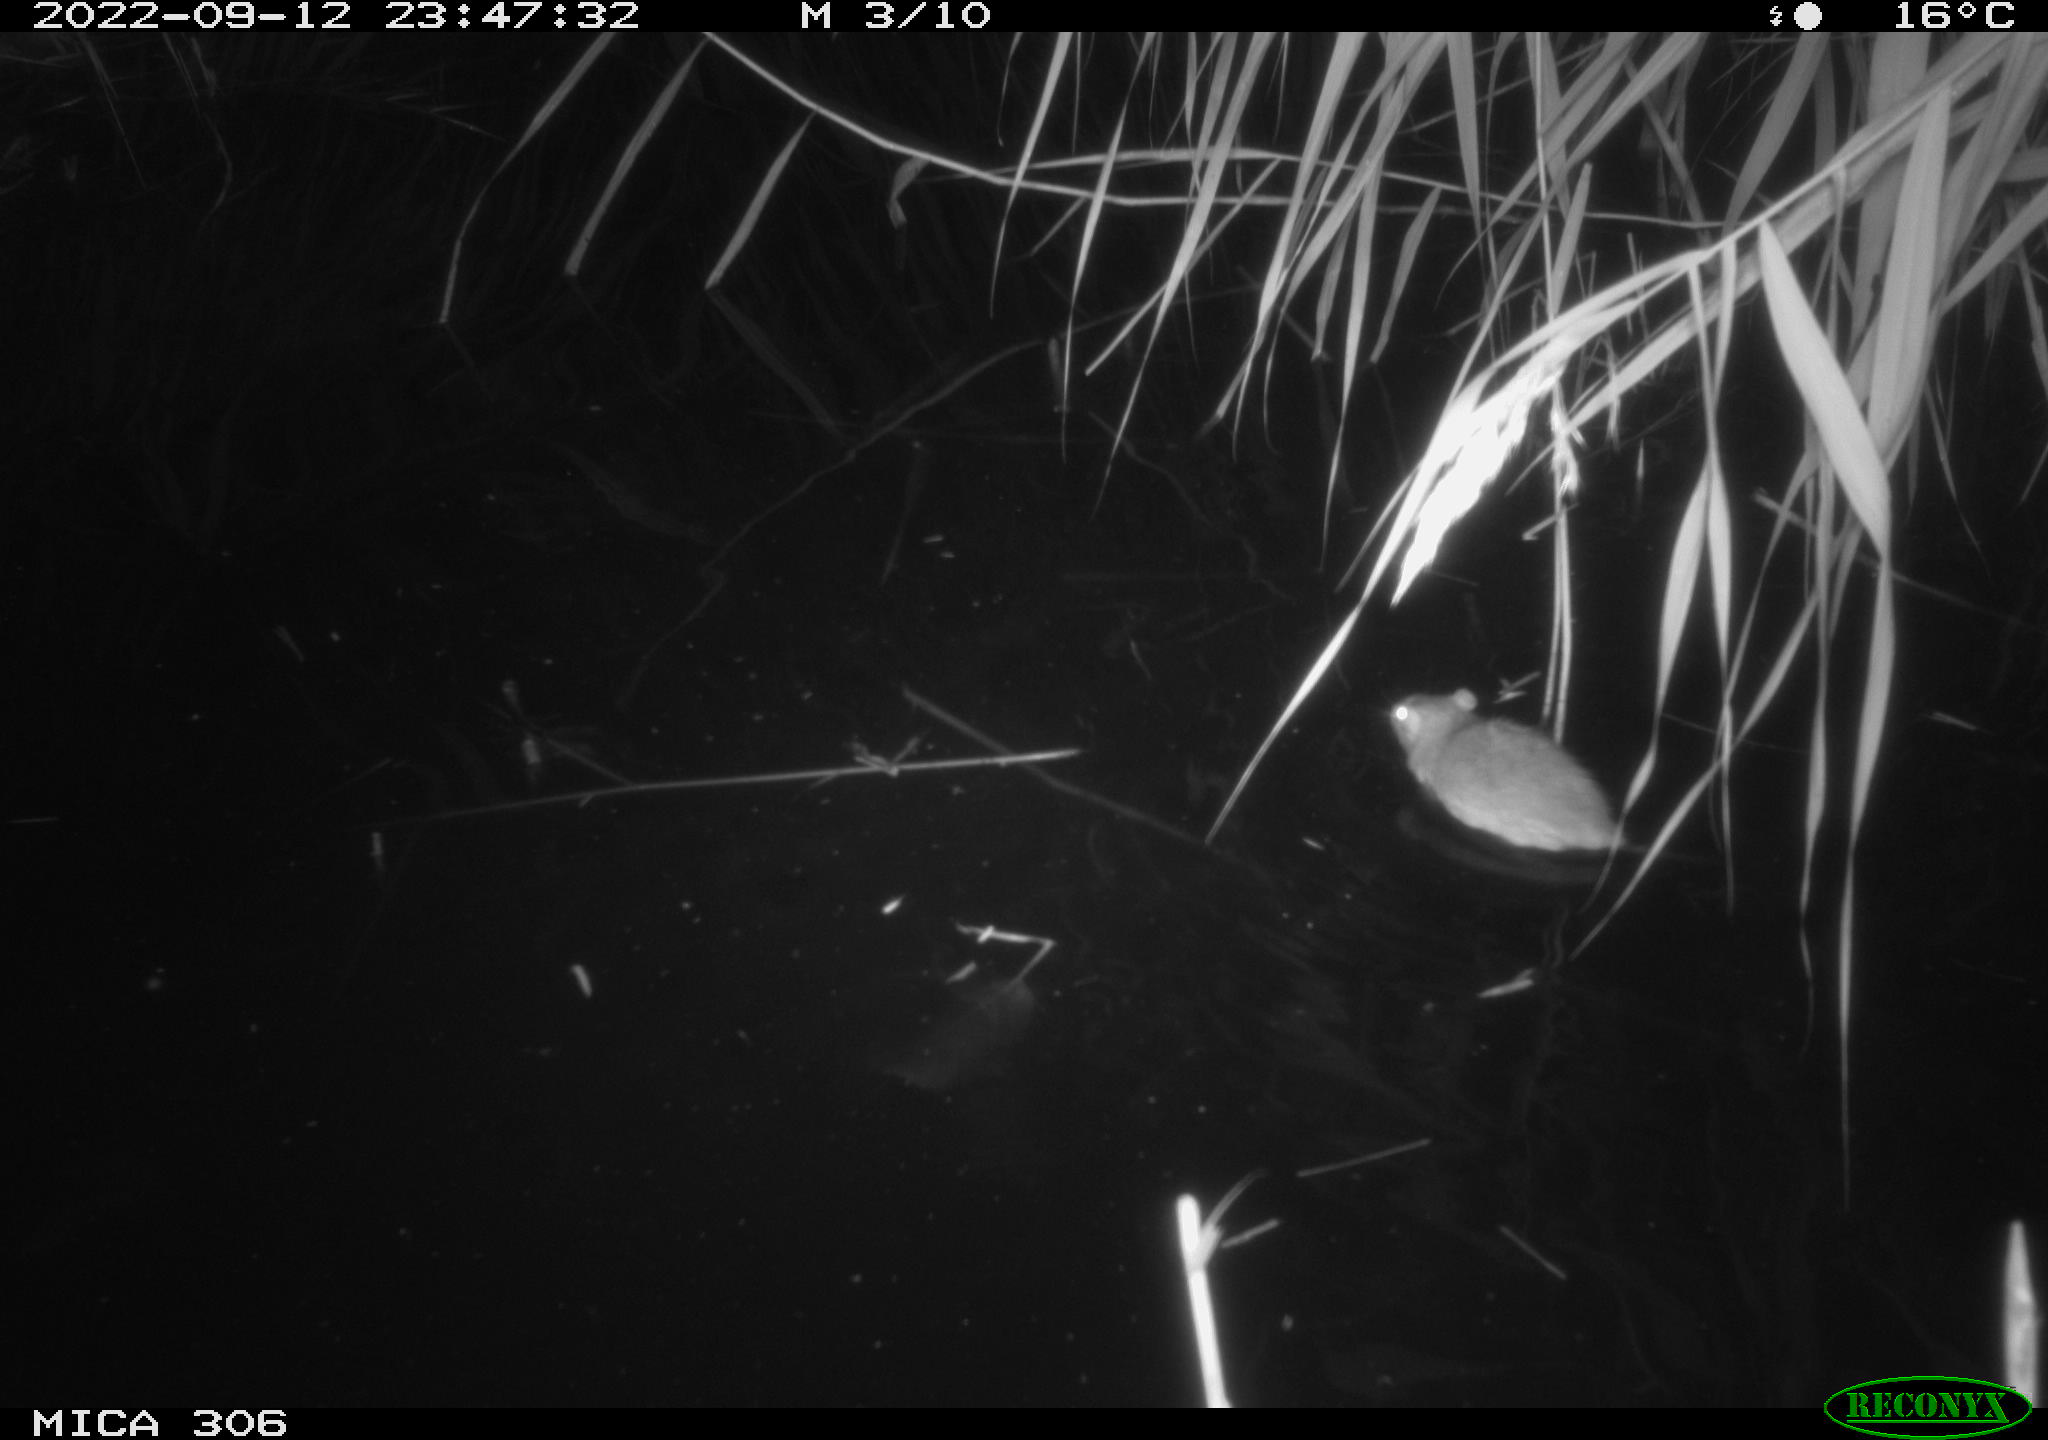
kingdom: Animalia
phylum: Chordata
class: Mammalia
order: Rodentia
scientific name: Rodentia
